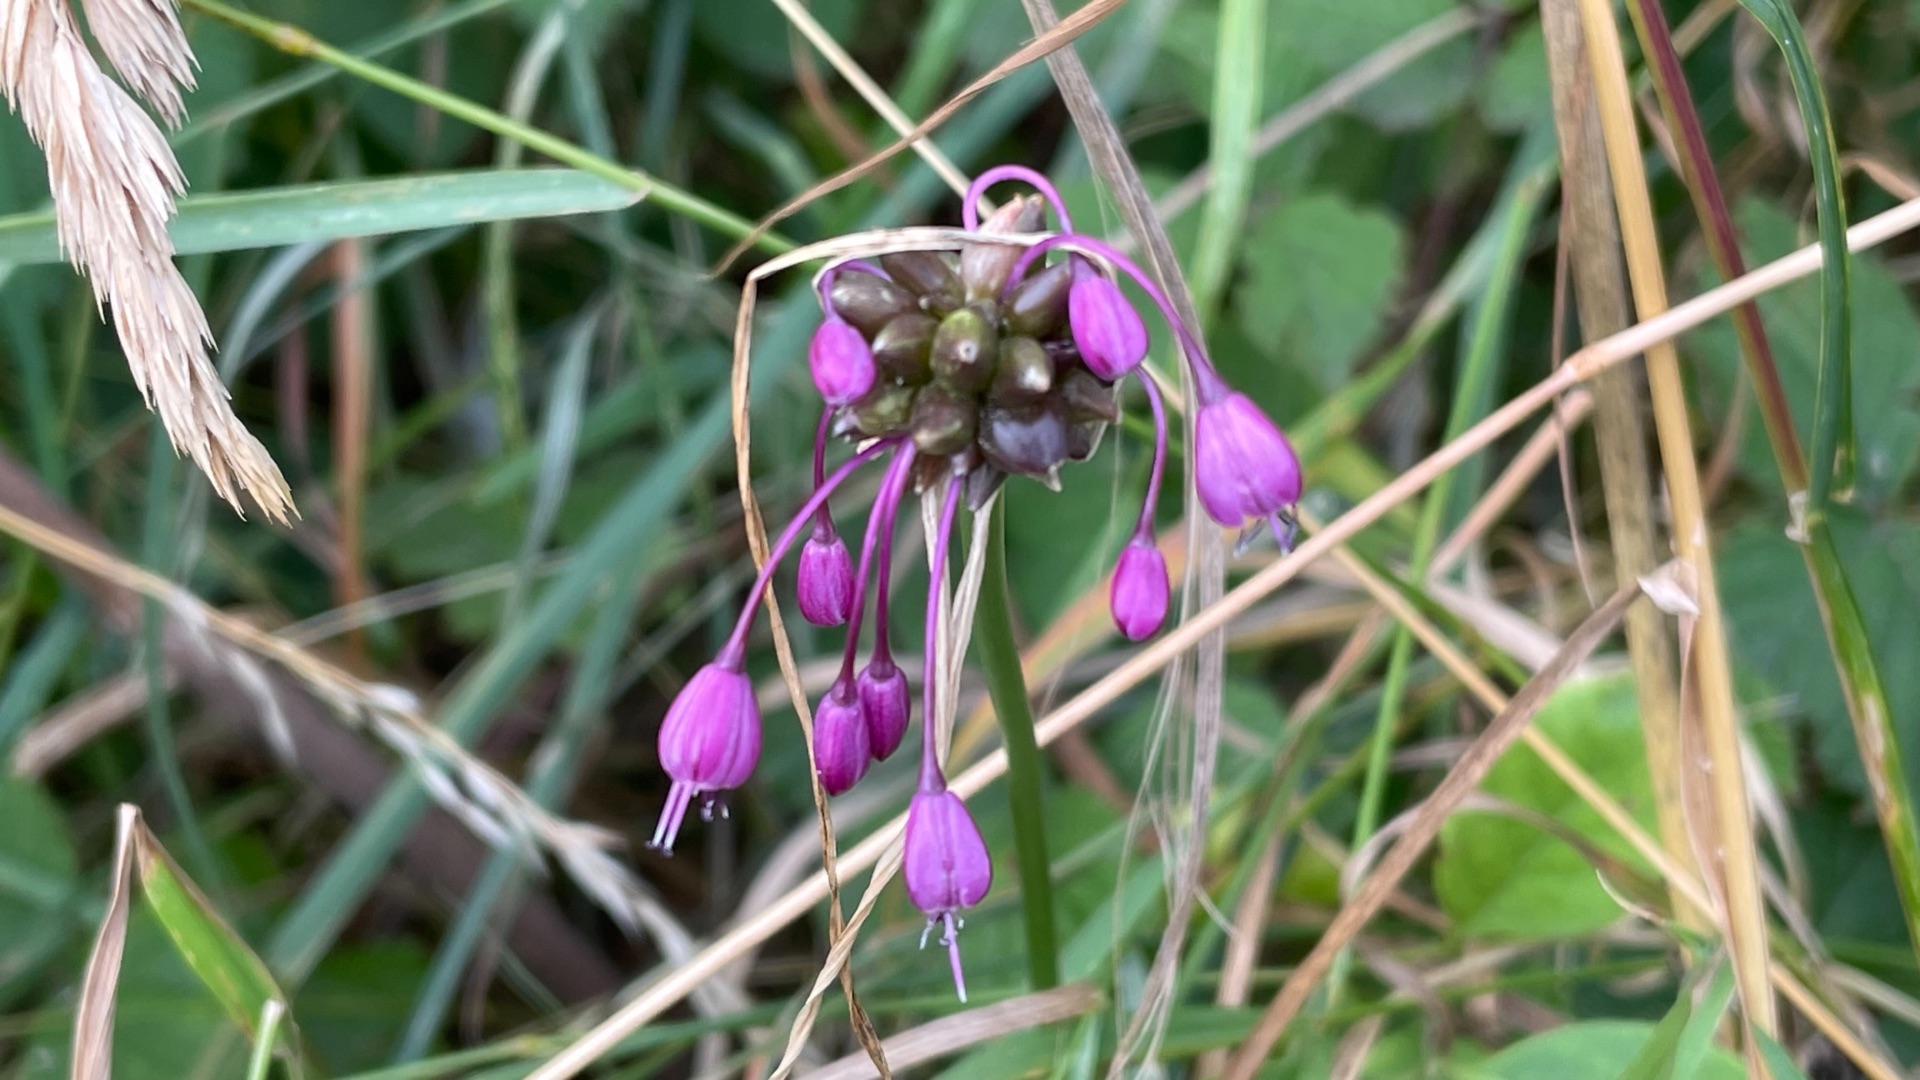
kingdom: Plantae
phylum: Tracheophyta
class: Liliopsida
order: Asparagales
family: Amaryllidaceae
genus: Allium
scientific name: Allium carinatum
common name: Kølet løg
